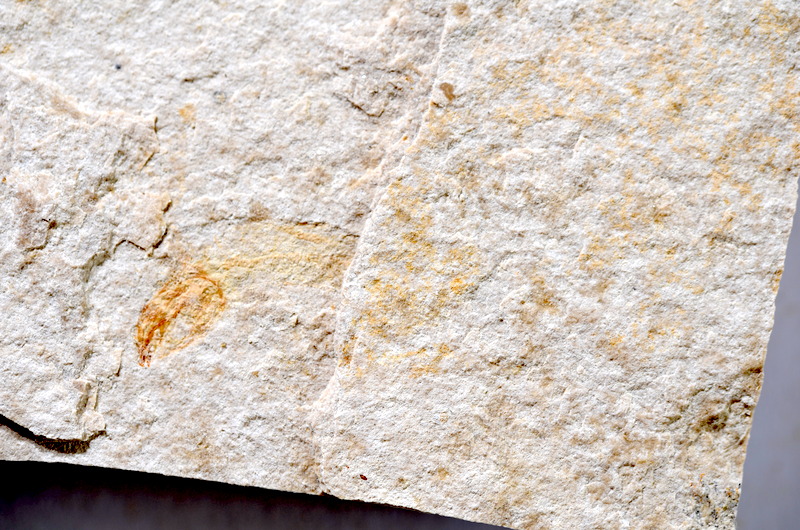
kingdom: Animalia
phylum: Chordata
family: Ascalaboidae
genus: Tharsis
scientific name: Tharsis dubius
